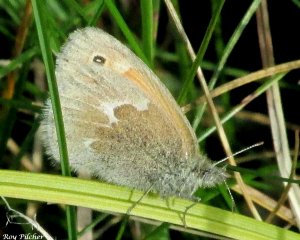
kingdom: Animalia
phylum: Arthropoda
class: Insecta
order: Lepidoptera
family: Nymphalidae
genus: Coenonympha
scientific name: Coenonympha tullia
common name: Large Heath
